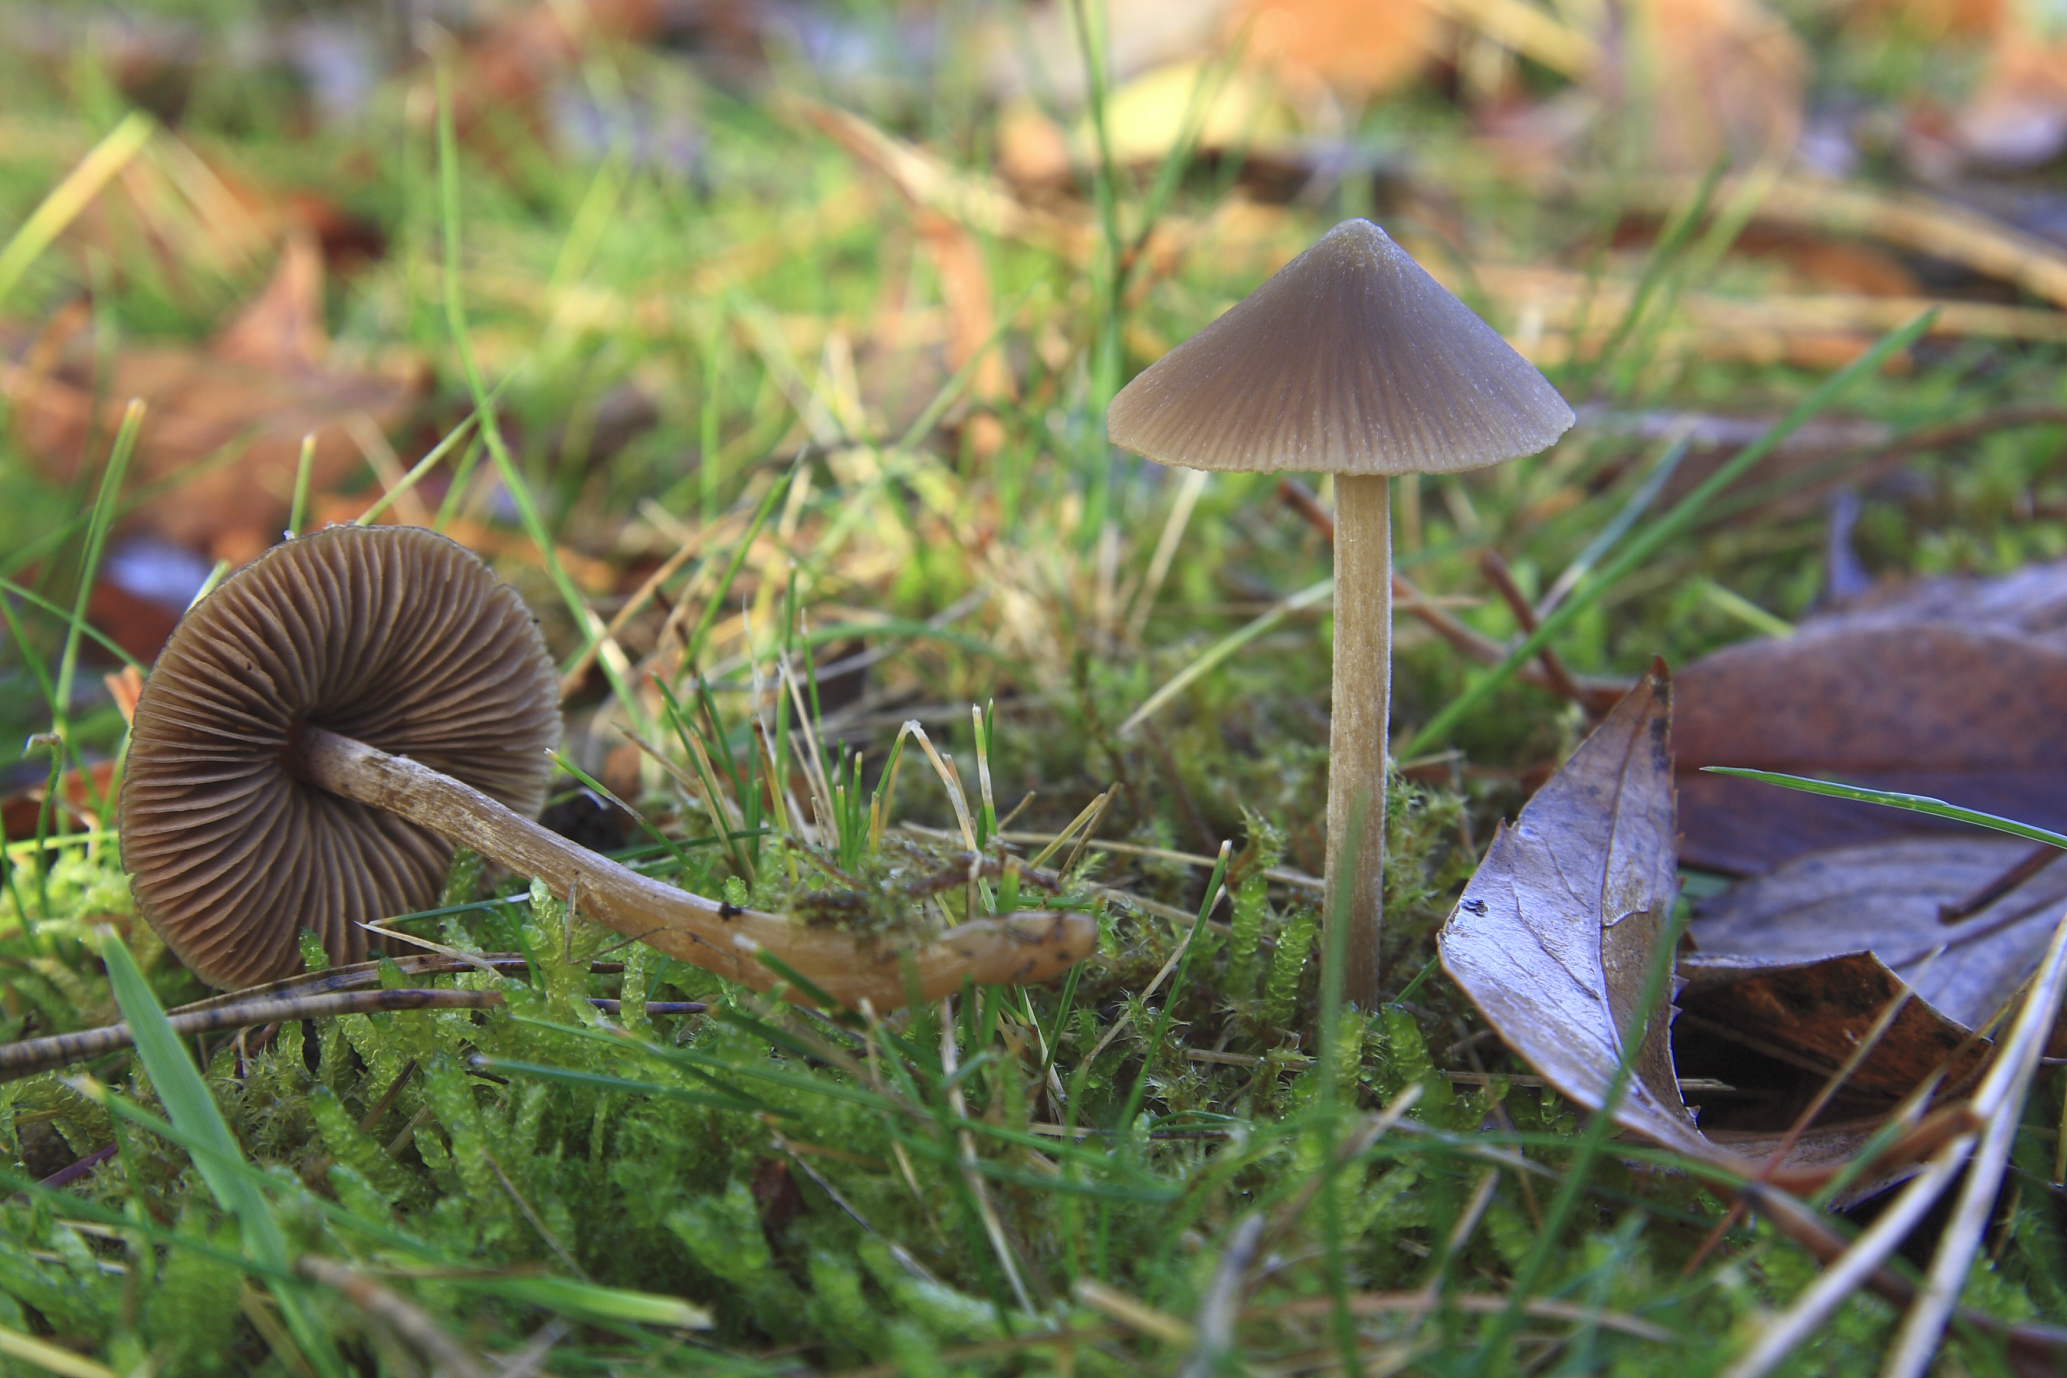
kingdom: Fungi
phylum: Basidiomycota
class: Agaricomycetes
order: Agaricales
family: Entolomataceae
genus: Entoloma
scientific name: Entoloma cuneatum
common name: dunstokket rødblad
